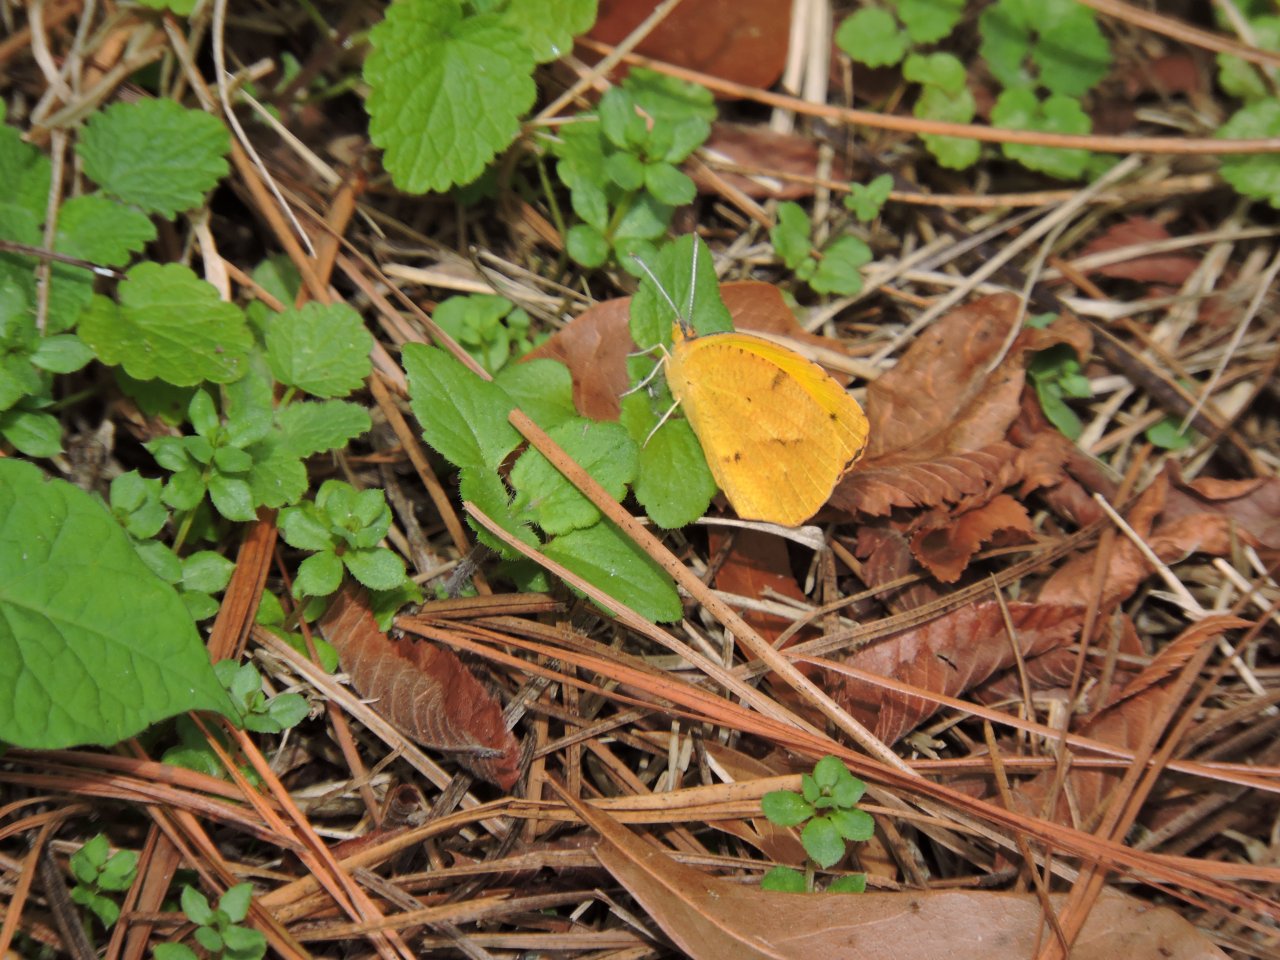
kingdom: Animalia
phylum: Arthropoda
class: Insecta
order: Lepidoptera
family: Pieridae
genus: Abaeis
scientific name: Abaeis nicippe
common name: Sleepy Orange
